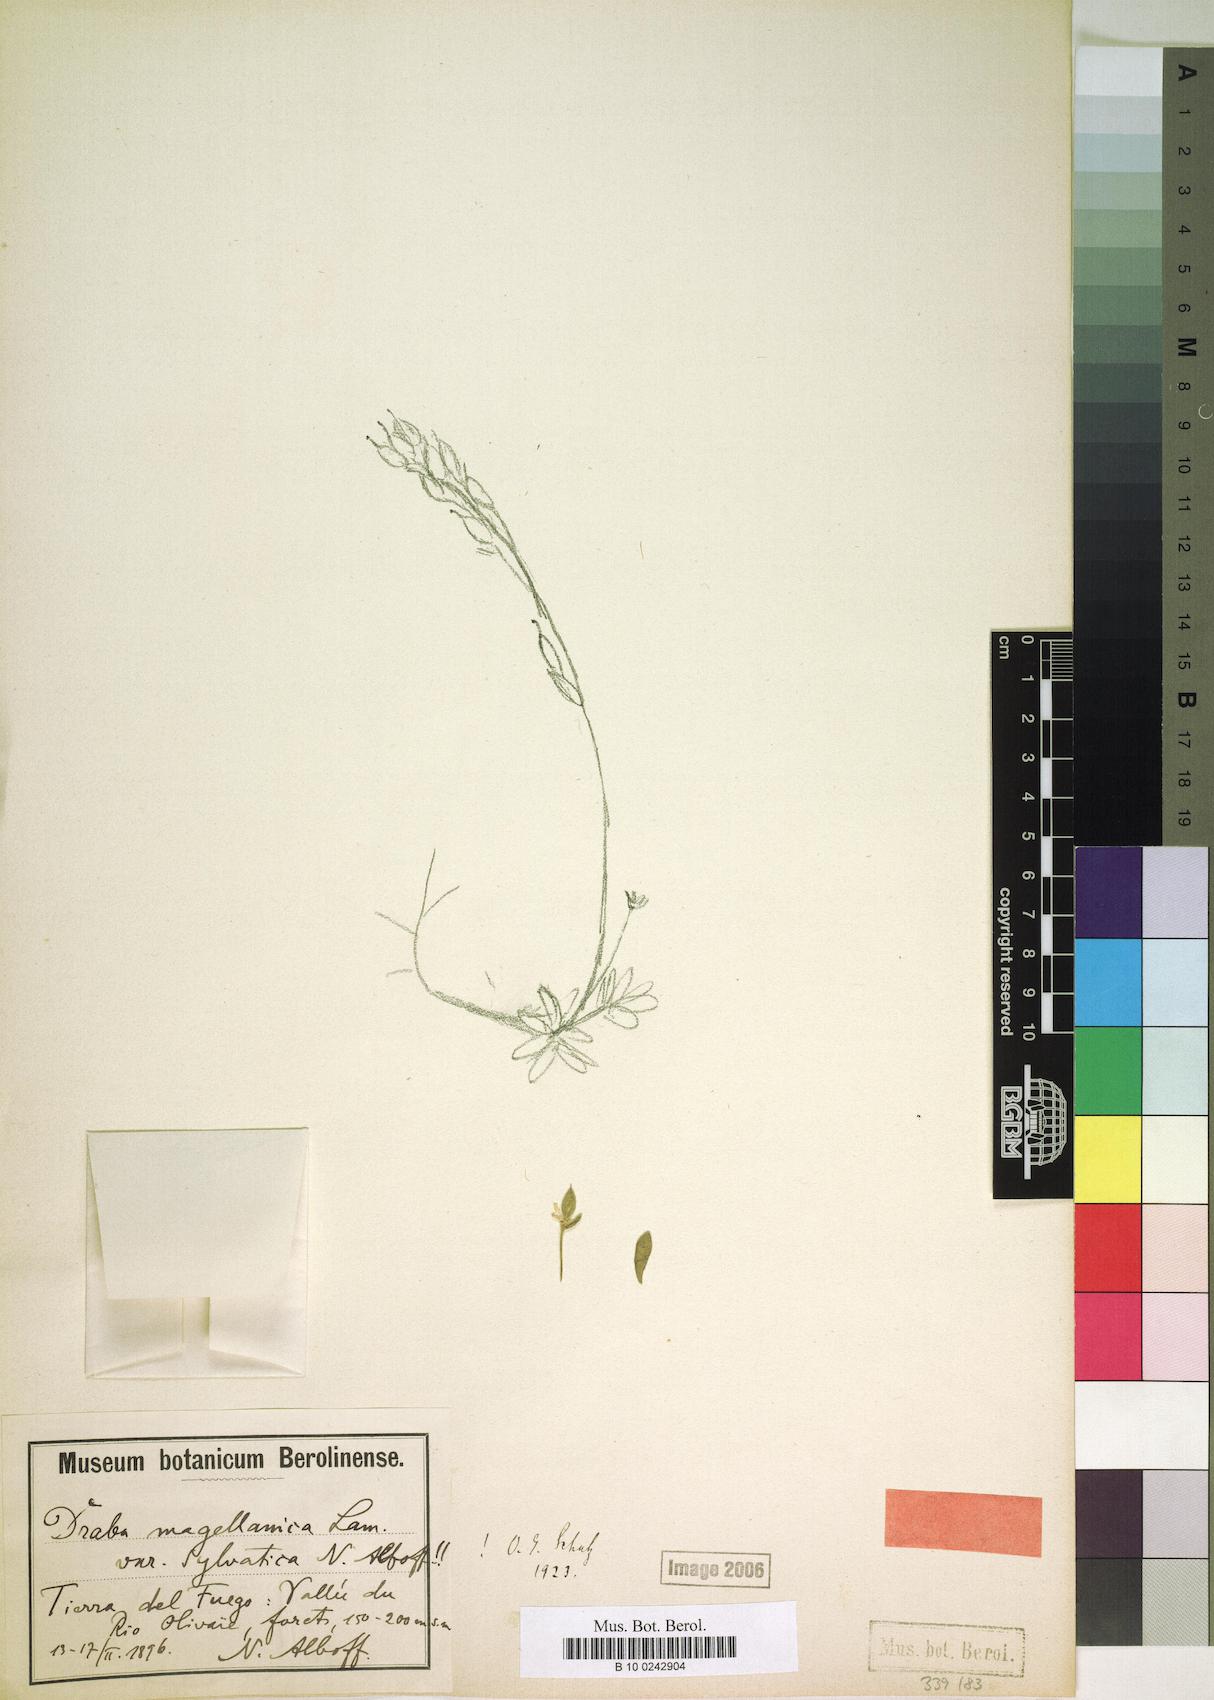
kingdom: Plantae
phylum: Tracheophyta
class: Magnoliopsida
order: Brassicales
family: Brassicaceae
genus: Draba
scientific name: Draba magellanica
